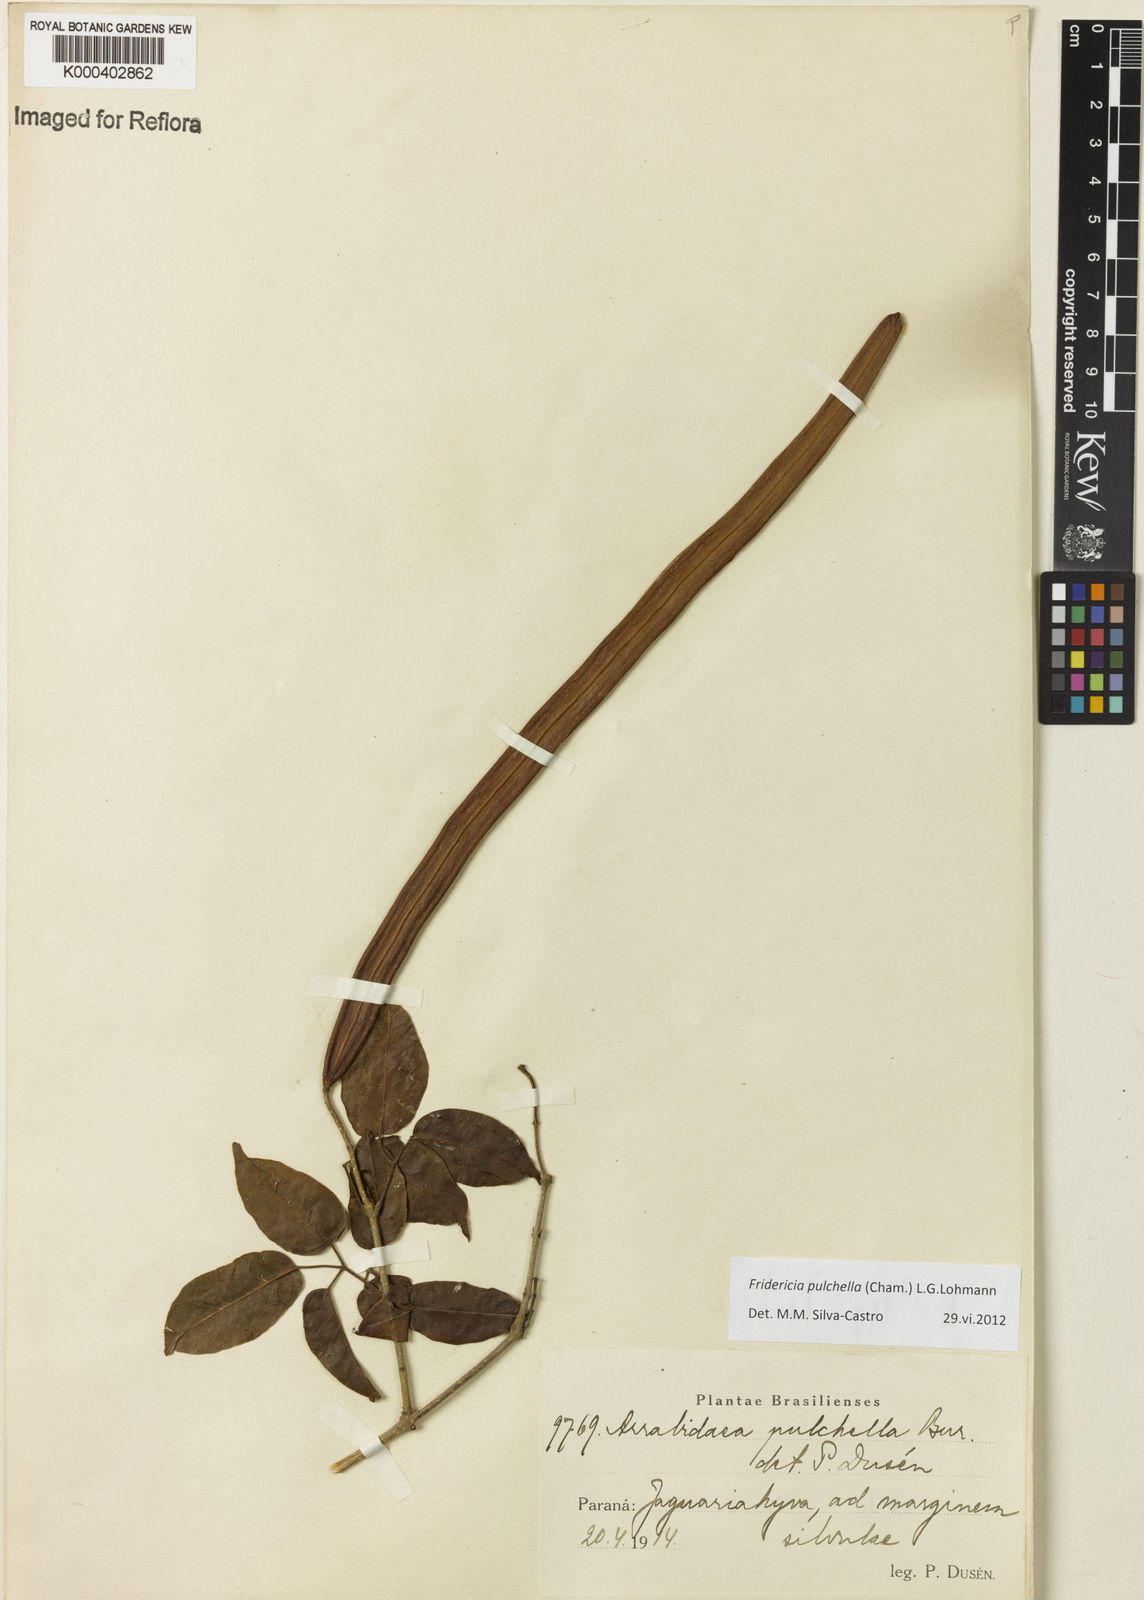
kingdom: Plantae
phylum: Tracheophyta
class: Magnoliopsida
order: Lamiales
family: Bignoniaceae
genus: Fridericia
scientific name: Fridericia
